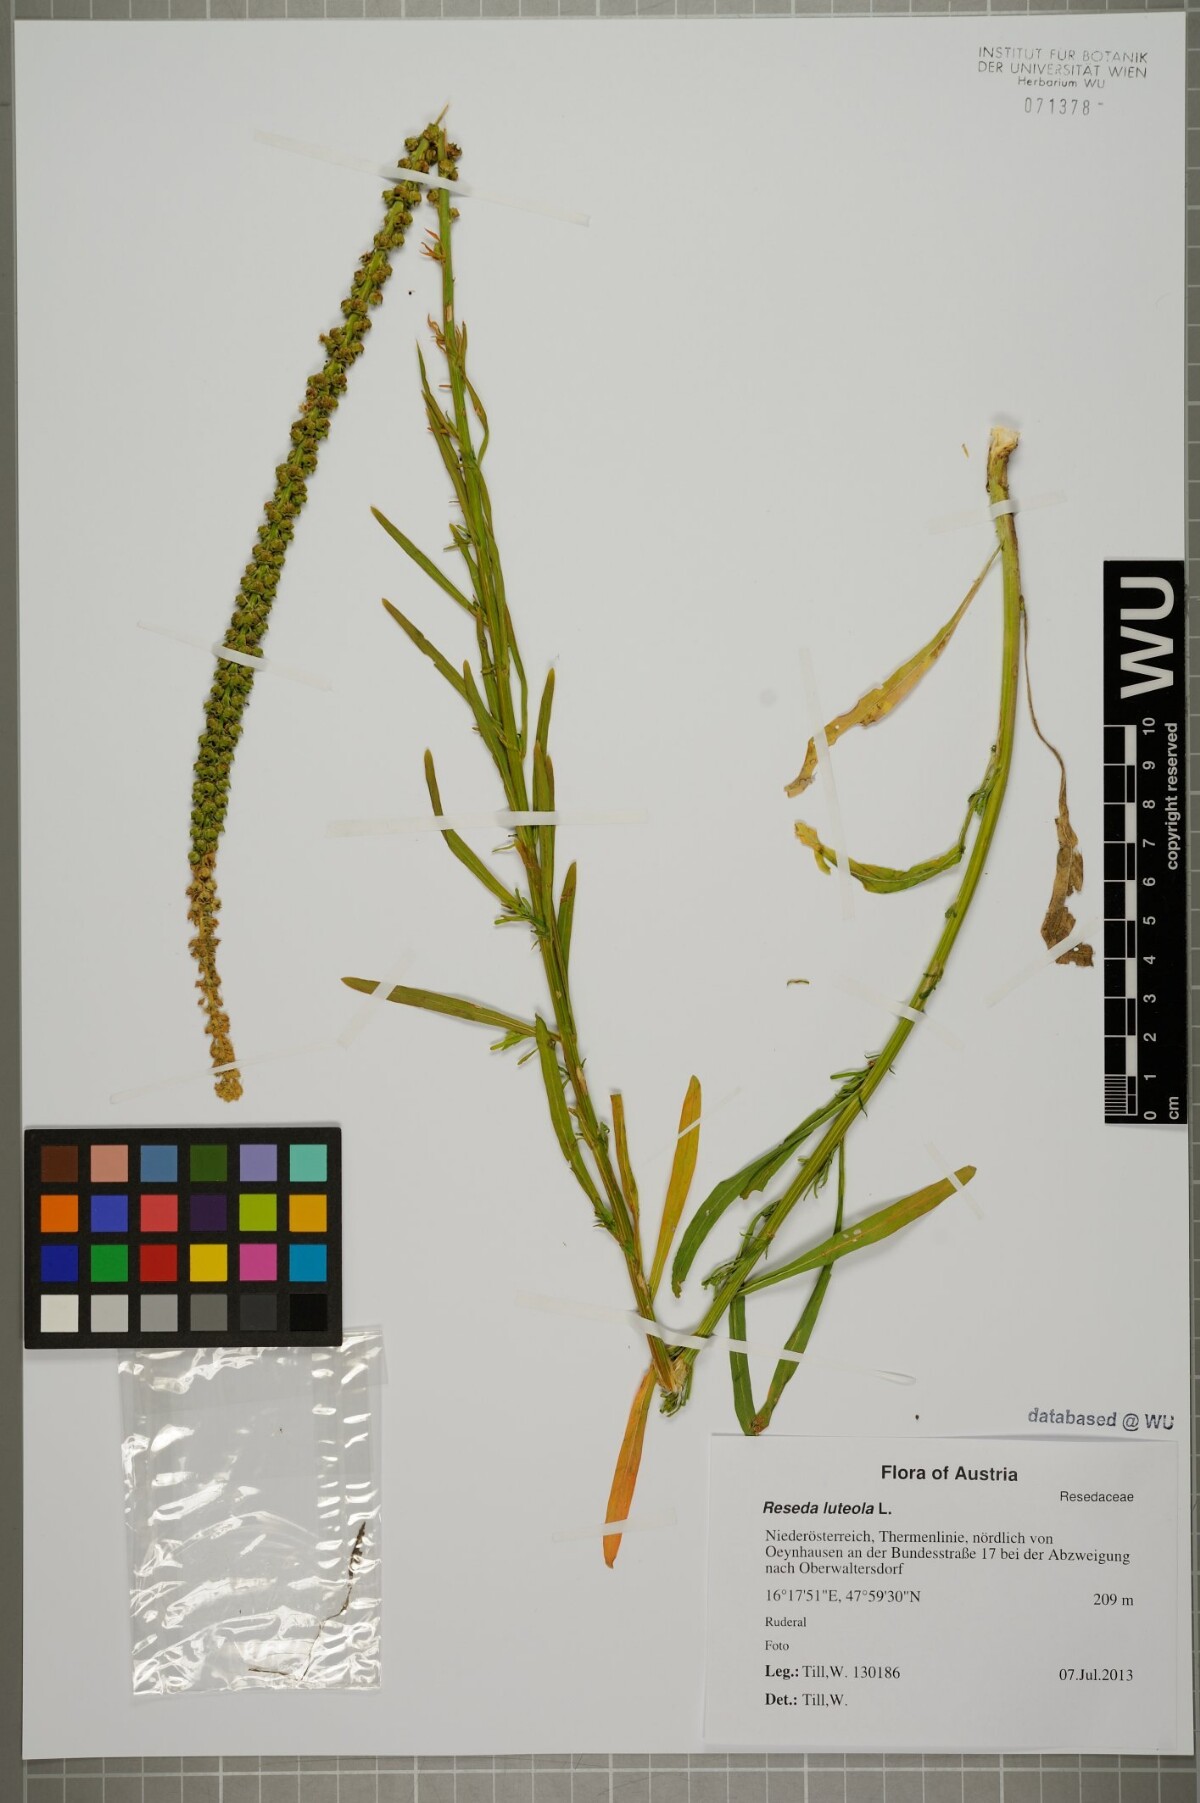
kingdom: Plantae
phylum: Tracheophyta
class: Magnoliopsida
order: Brassicales
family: Resedaceae
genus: Reseda
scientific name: Reseda luteola
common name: Weld
